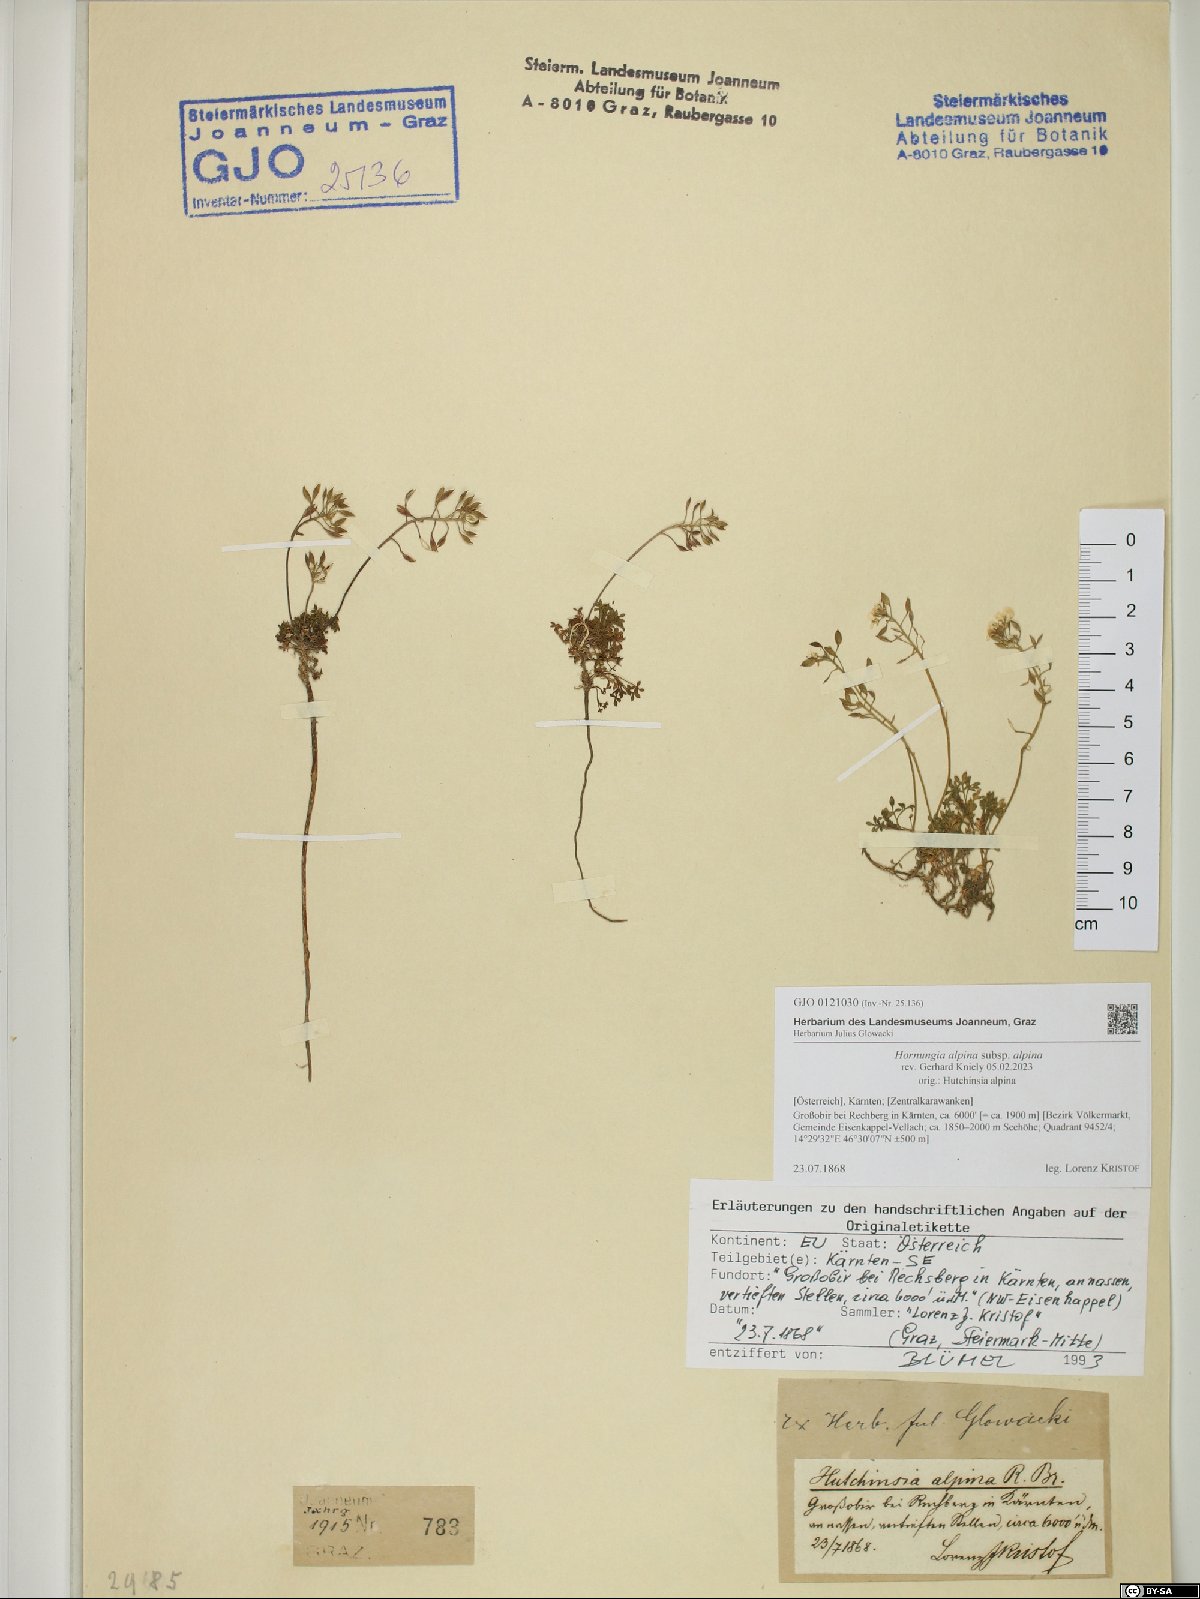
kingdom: Plantae
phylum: Tracheophyta
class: Magnoliopsida
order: Brassicales
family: Brassicaceae
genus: Hornungia
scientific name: Hornungia alpina
